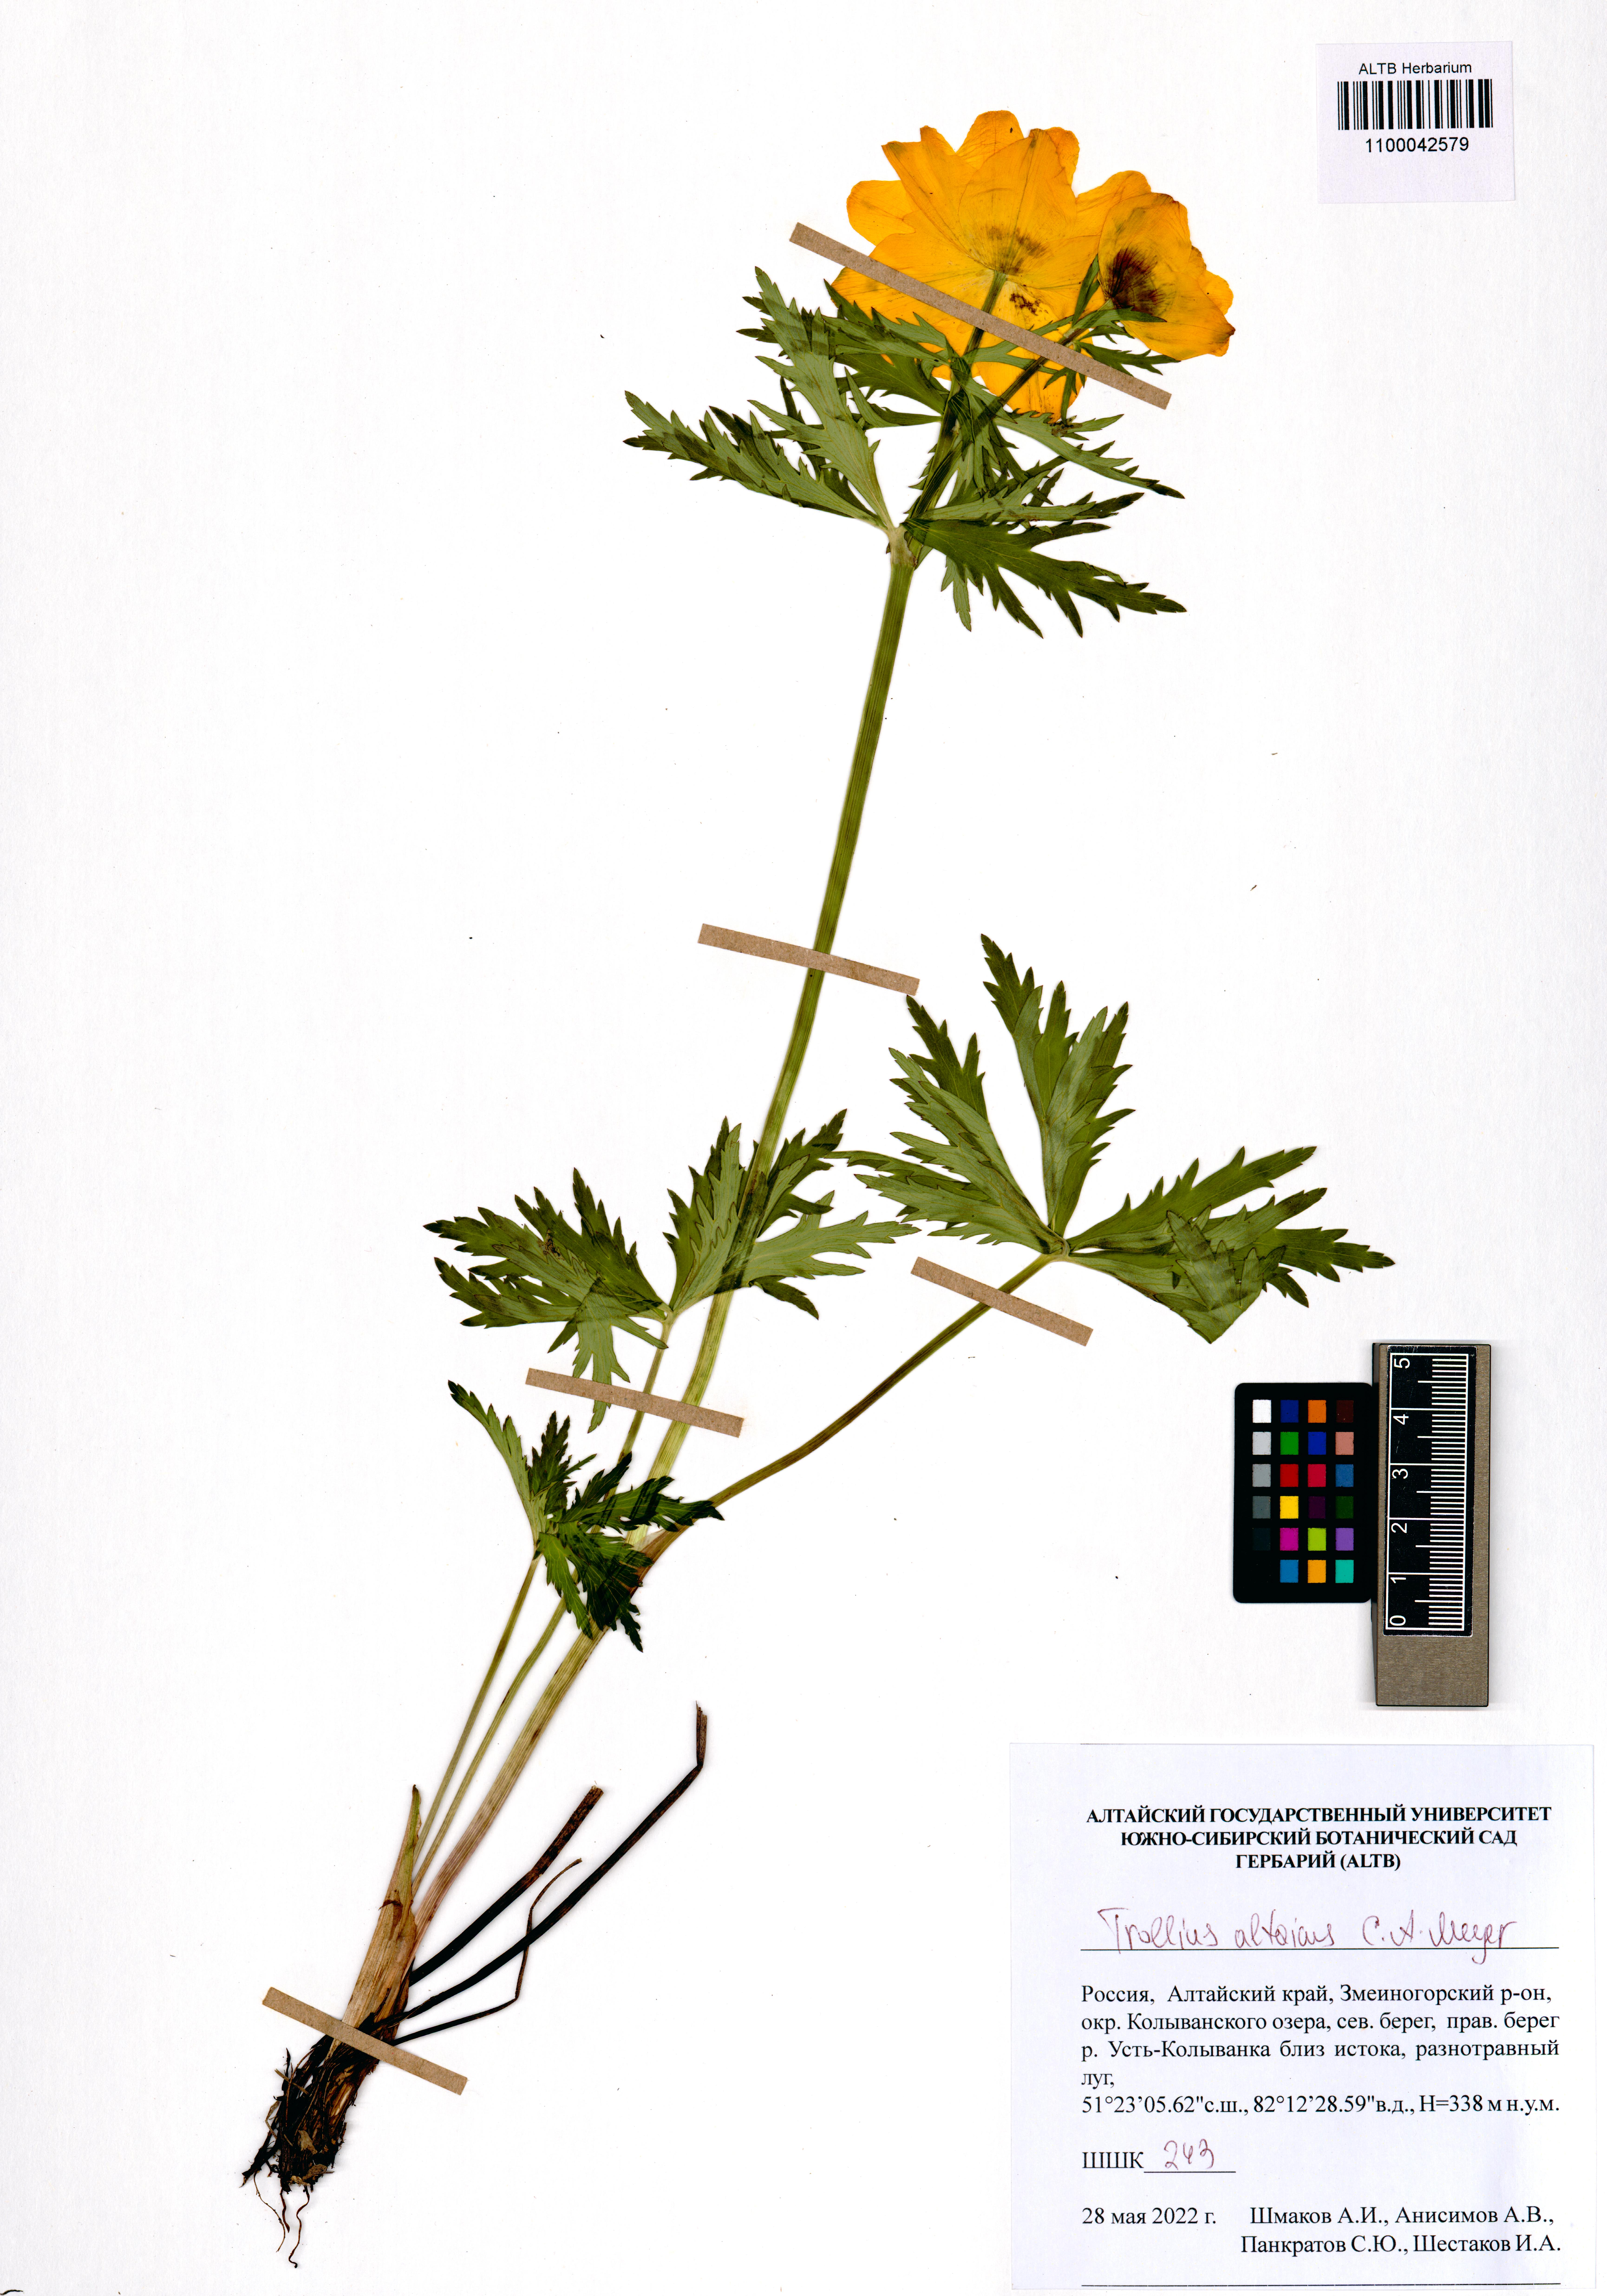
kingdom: Plantae
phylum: Tracheophyta
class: Magnoliopsida
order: Ranunculales
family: Ranunculaceae
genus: Trollius
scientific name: Trollius altaicus
